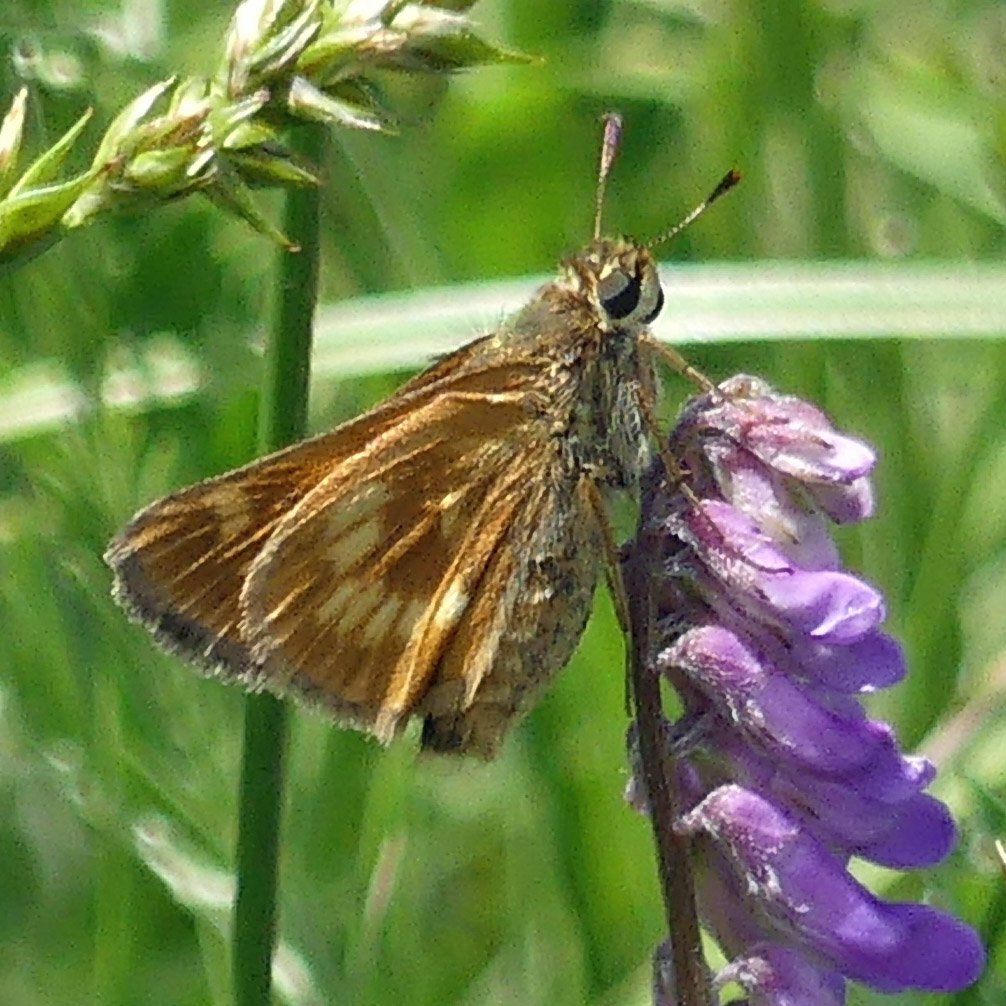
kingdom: Animalia
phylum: Arthropoda
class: Insecta
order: Lepidoptera
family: Hesperiidae
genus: Polites
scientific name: Polites
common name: Long Dash Skipper
